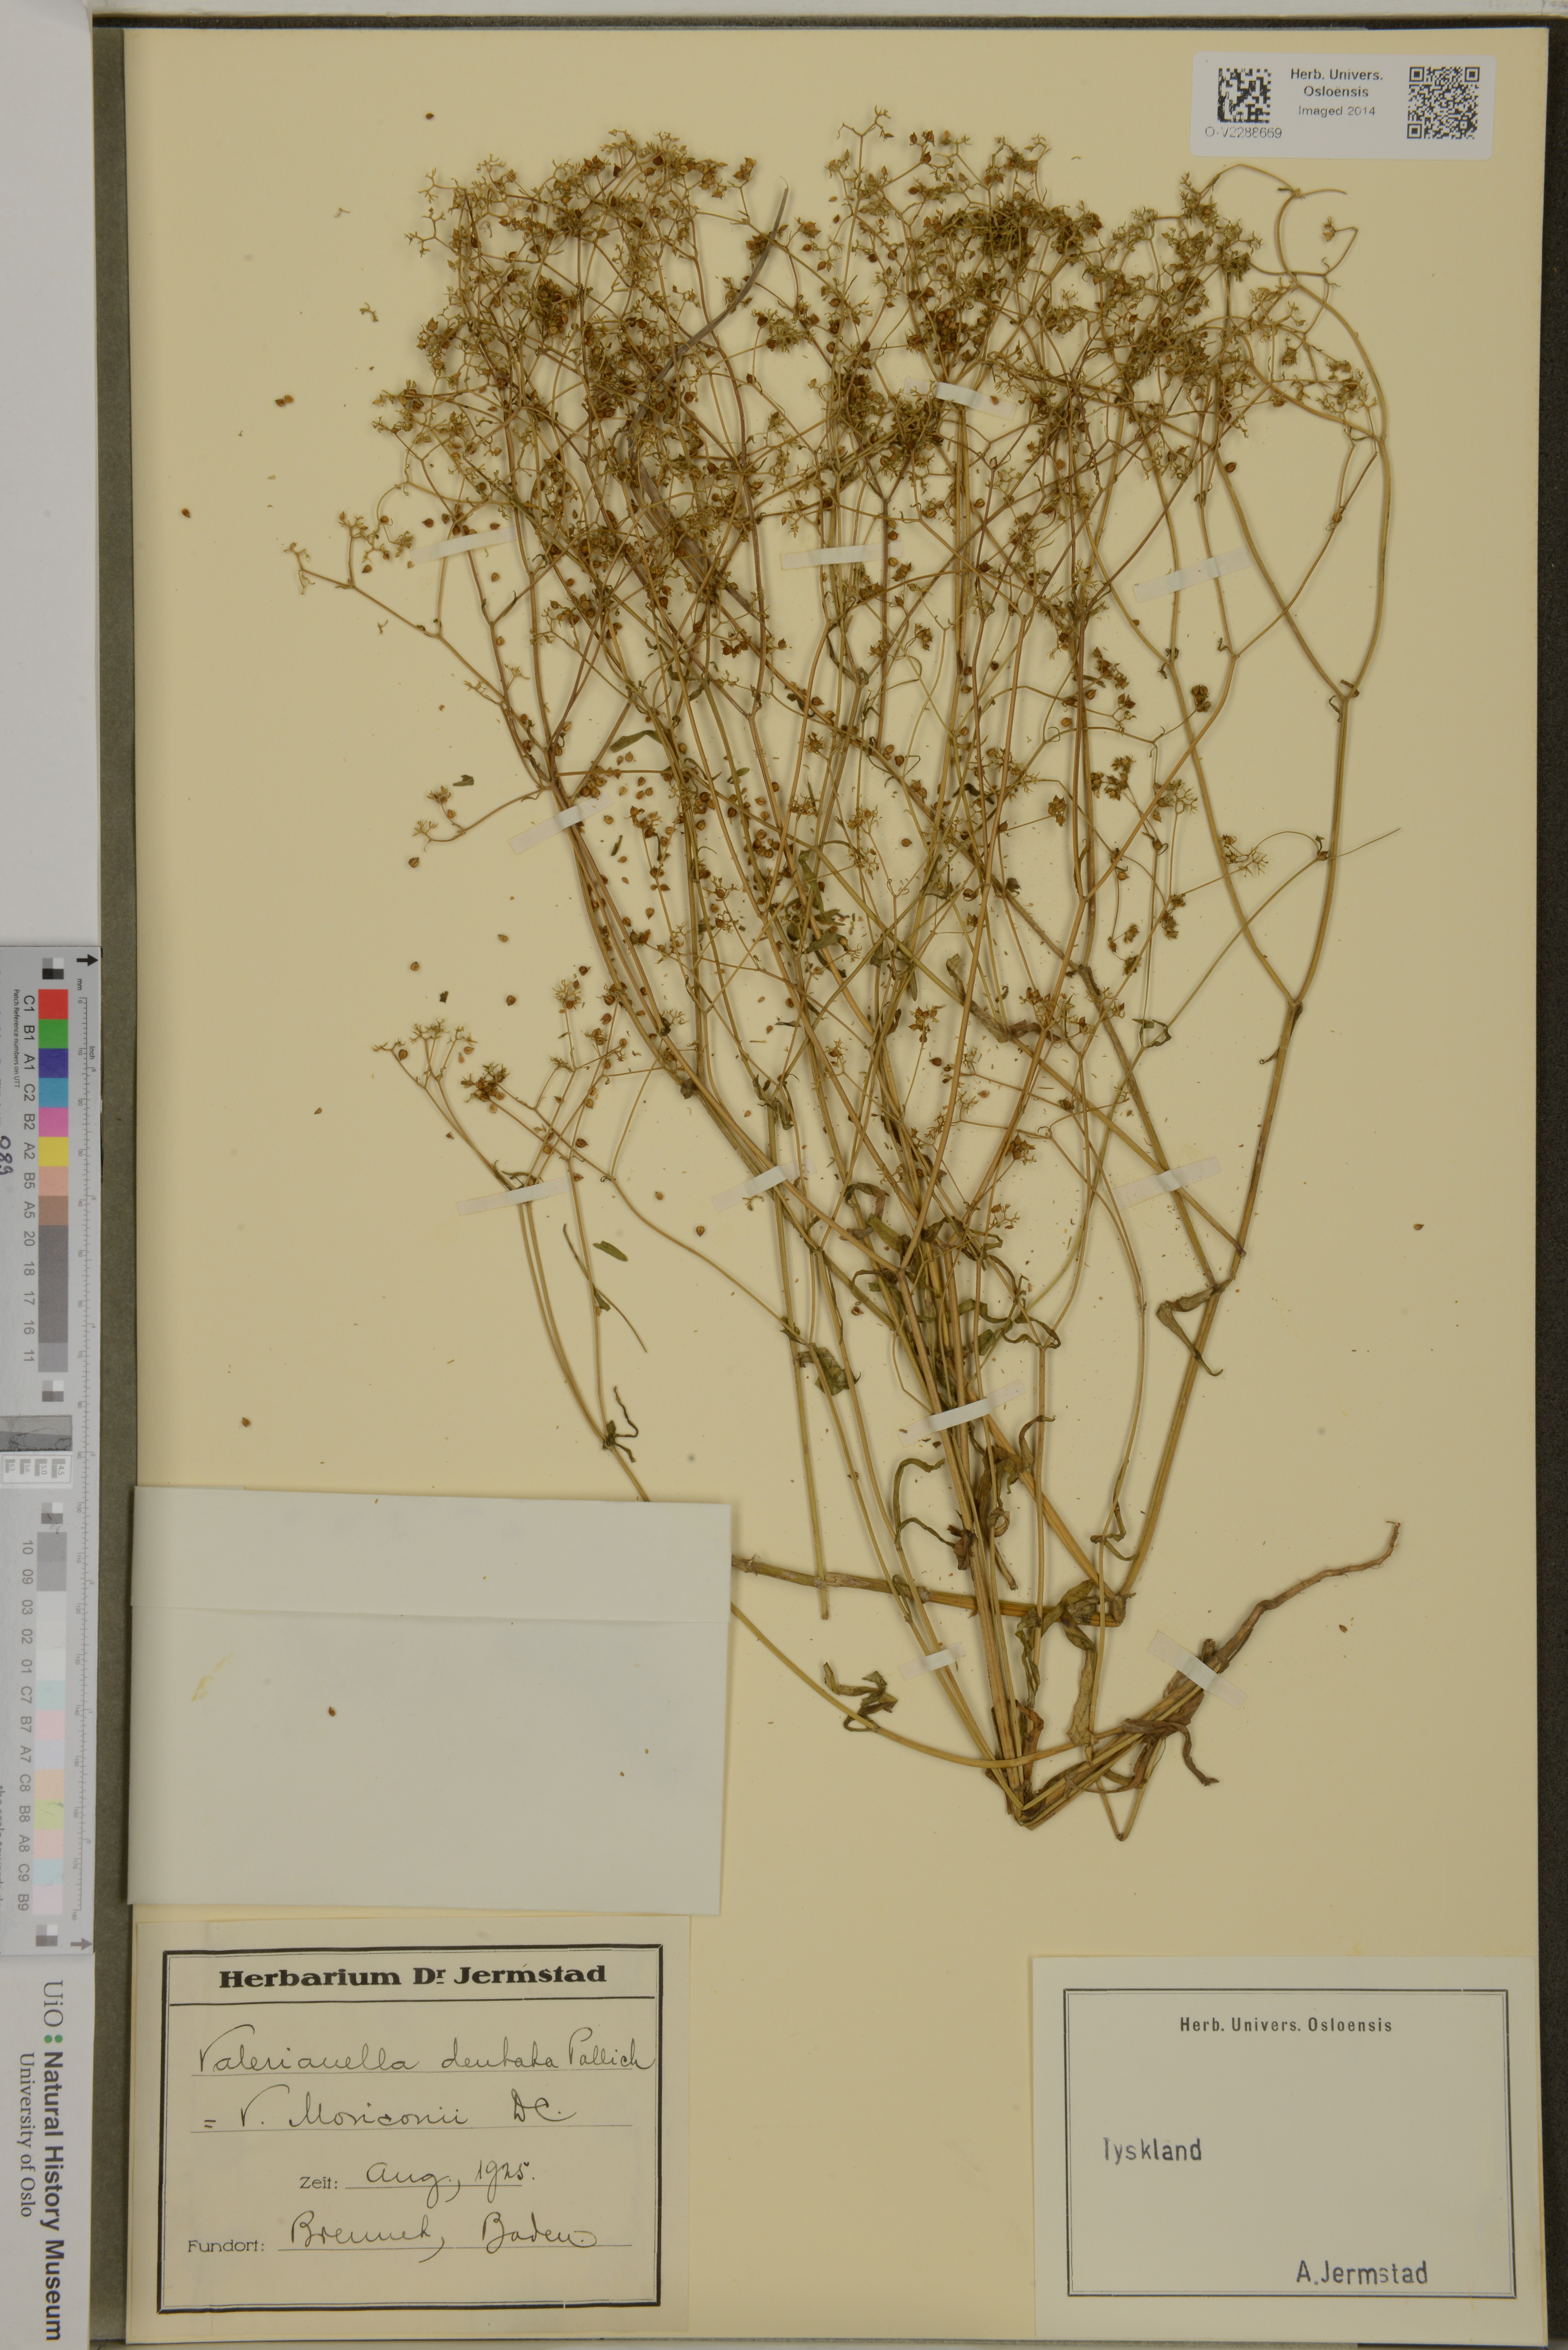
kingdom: Plantae
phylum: Tracheophyta
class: Magnoliopsida
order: Dipsacales
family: Caprifoliaceae
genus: Valerianella
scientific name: Valerianella dentata
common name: Narrow-fruited cornsalad
